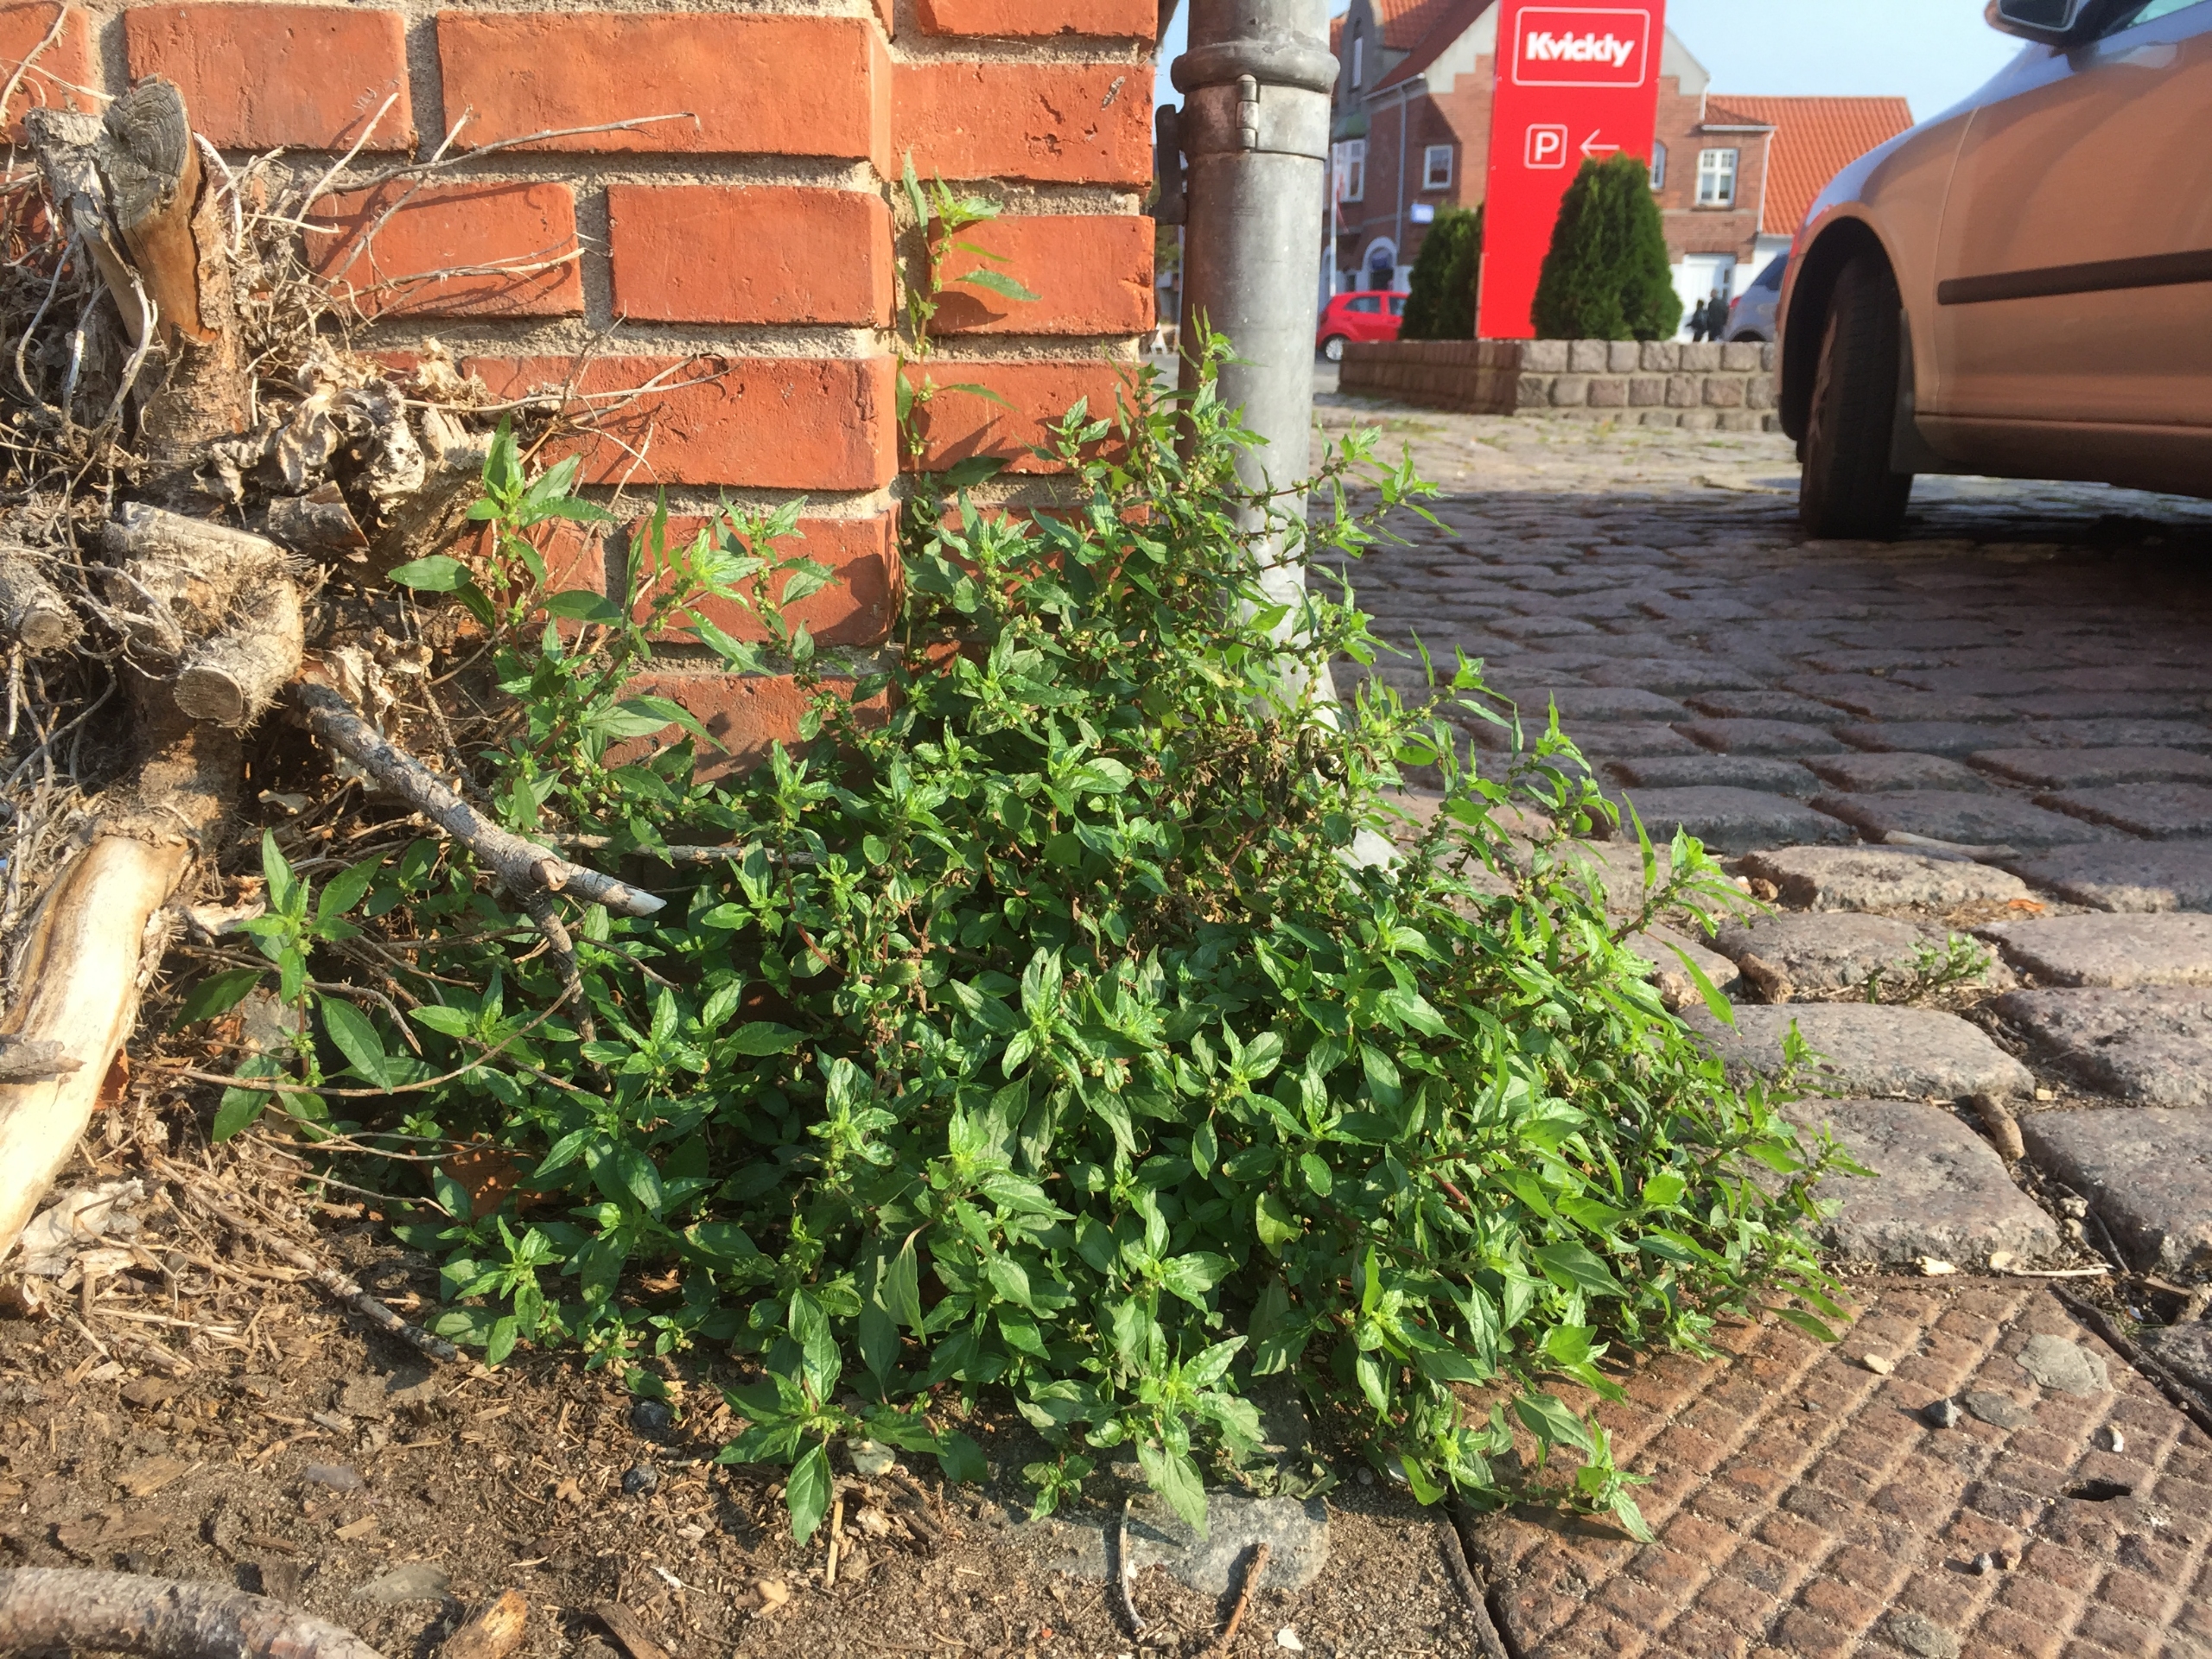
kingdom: Plantae
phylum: Tracheophyta
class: Magnoliopsida
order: Rosales
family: Urticaceae
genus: Parietaria
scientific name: Parietaria judaica
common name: Nedliggende springknap
